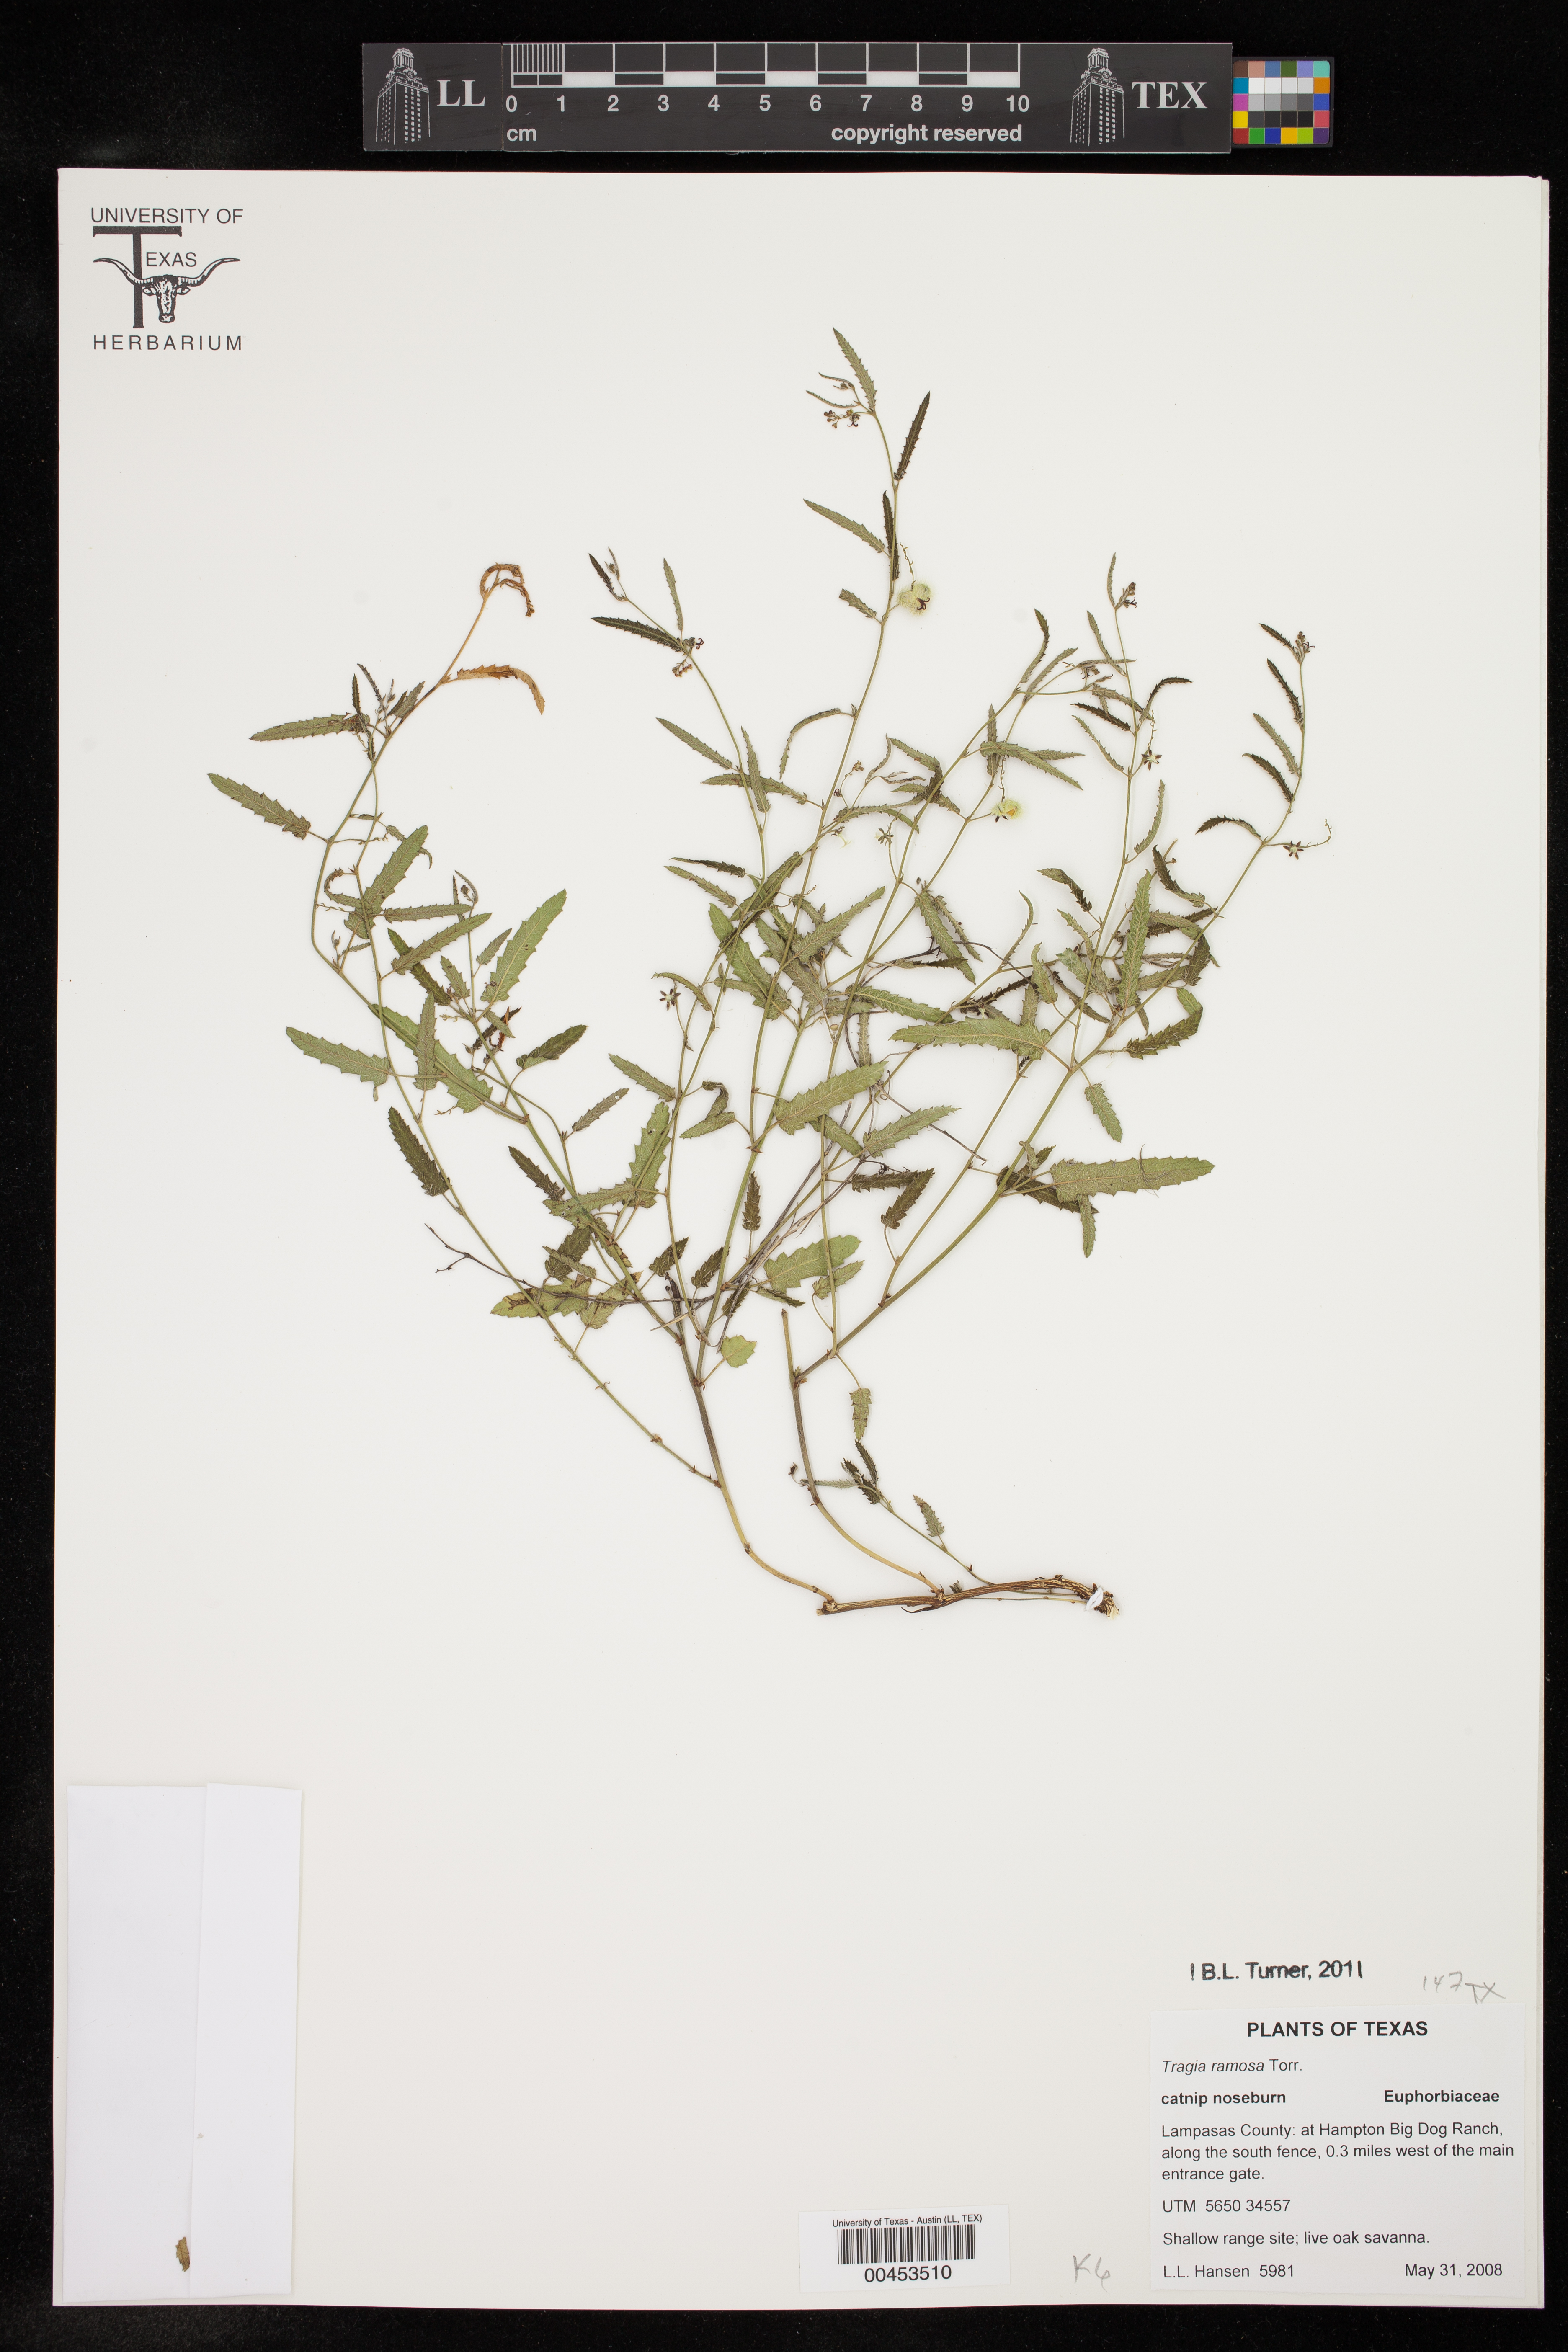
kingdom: Plantae
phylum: Tracheophyta
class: Magnoliopsida
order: Malpighiales
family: Euphorbiaceae
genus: Tragia
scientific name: Tragia ramosa
